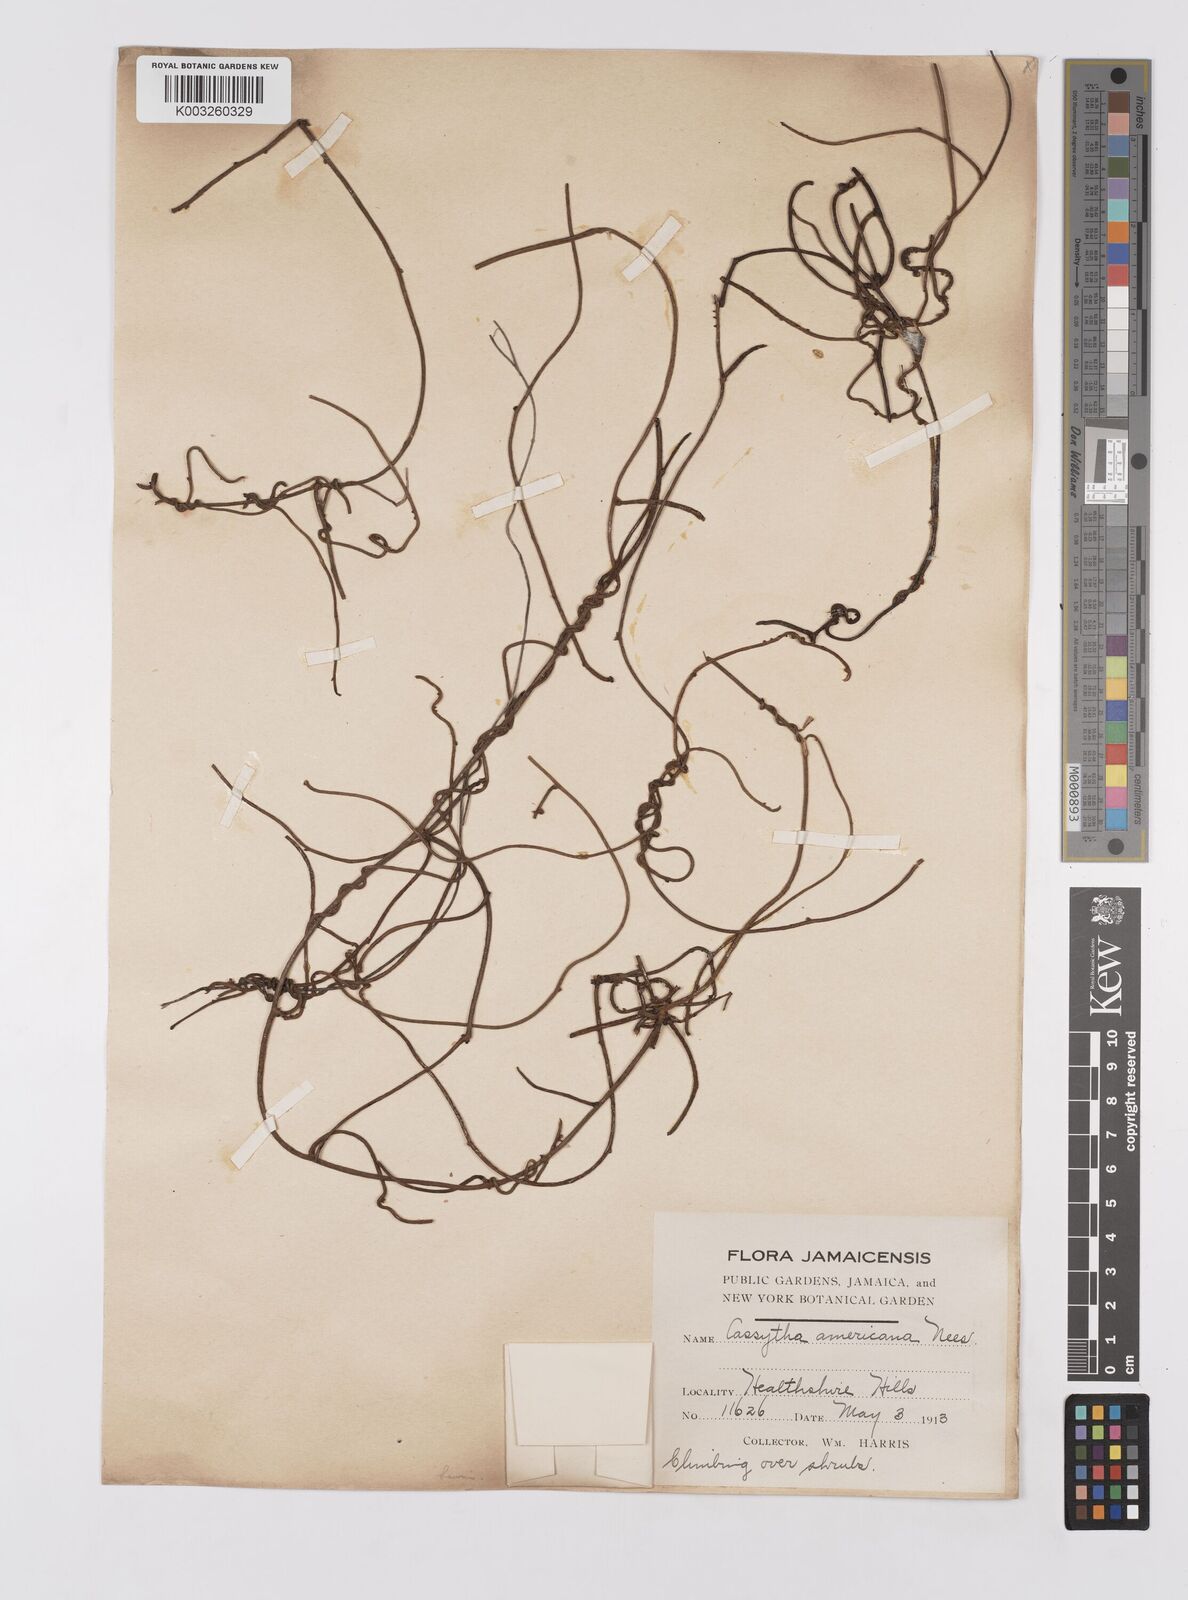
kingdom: Plantae
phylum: Tracheophyta
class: Magnoliopsida
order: Laurales
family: Lauraceae
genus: Cassytha
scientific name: Cassytha filiformis
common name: Dodder-laurel
